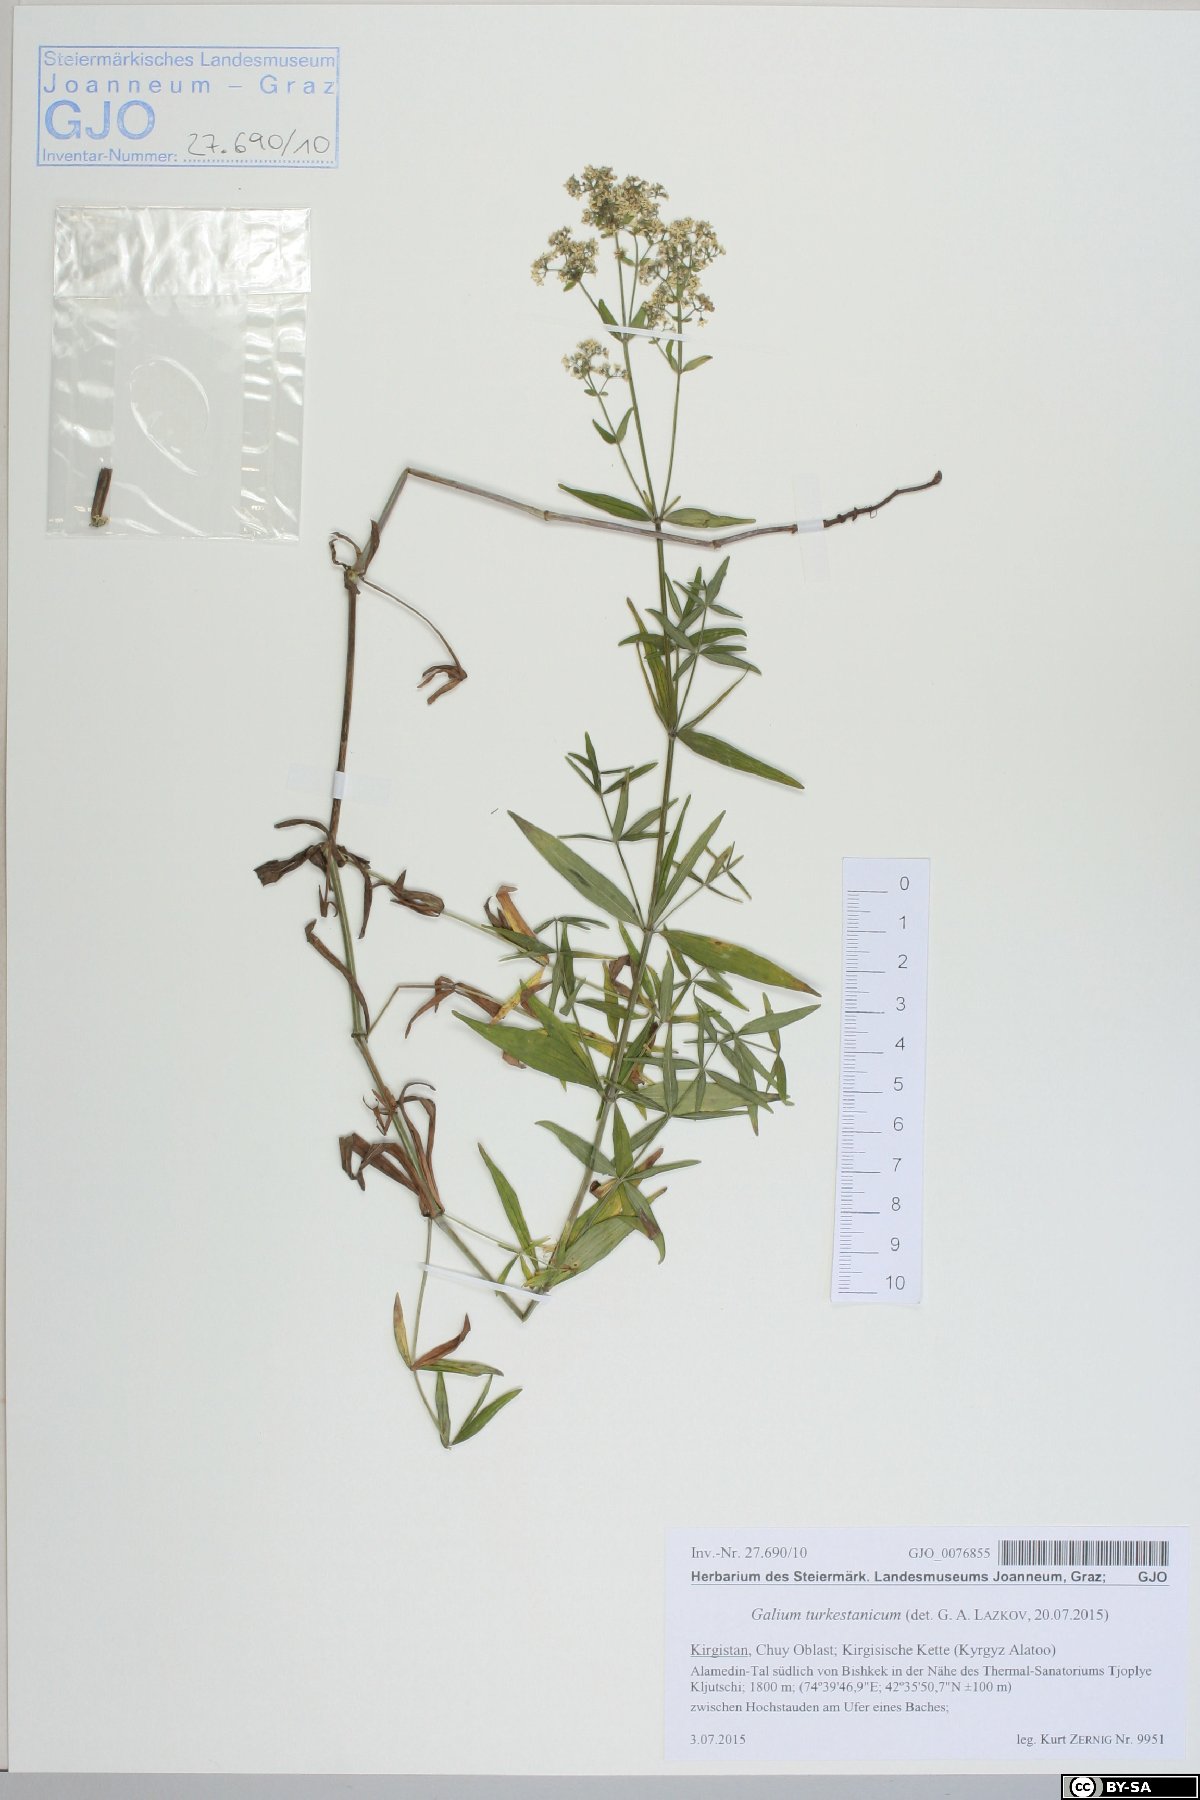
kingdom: Plantae
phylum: Tracheophyta
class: Magnoliopsida
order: Gentianales
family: Rubiaceae
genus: Galium
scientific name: Galium turkestanicum
